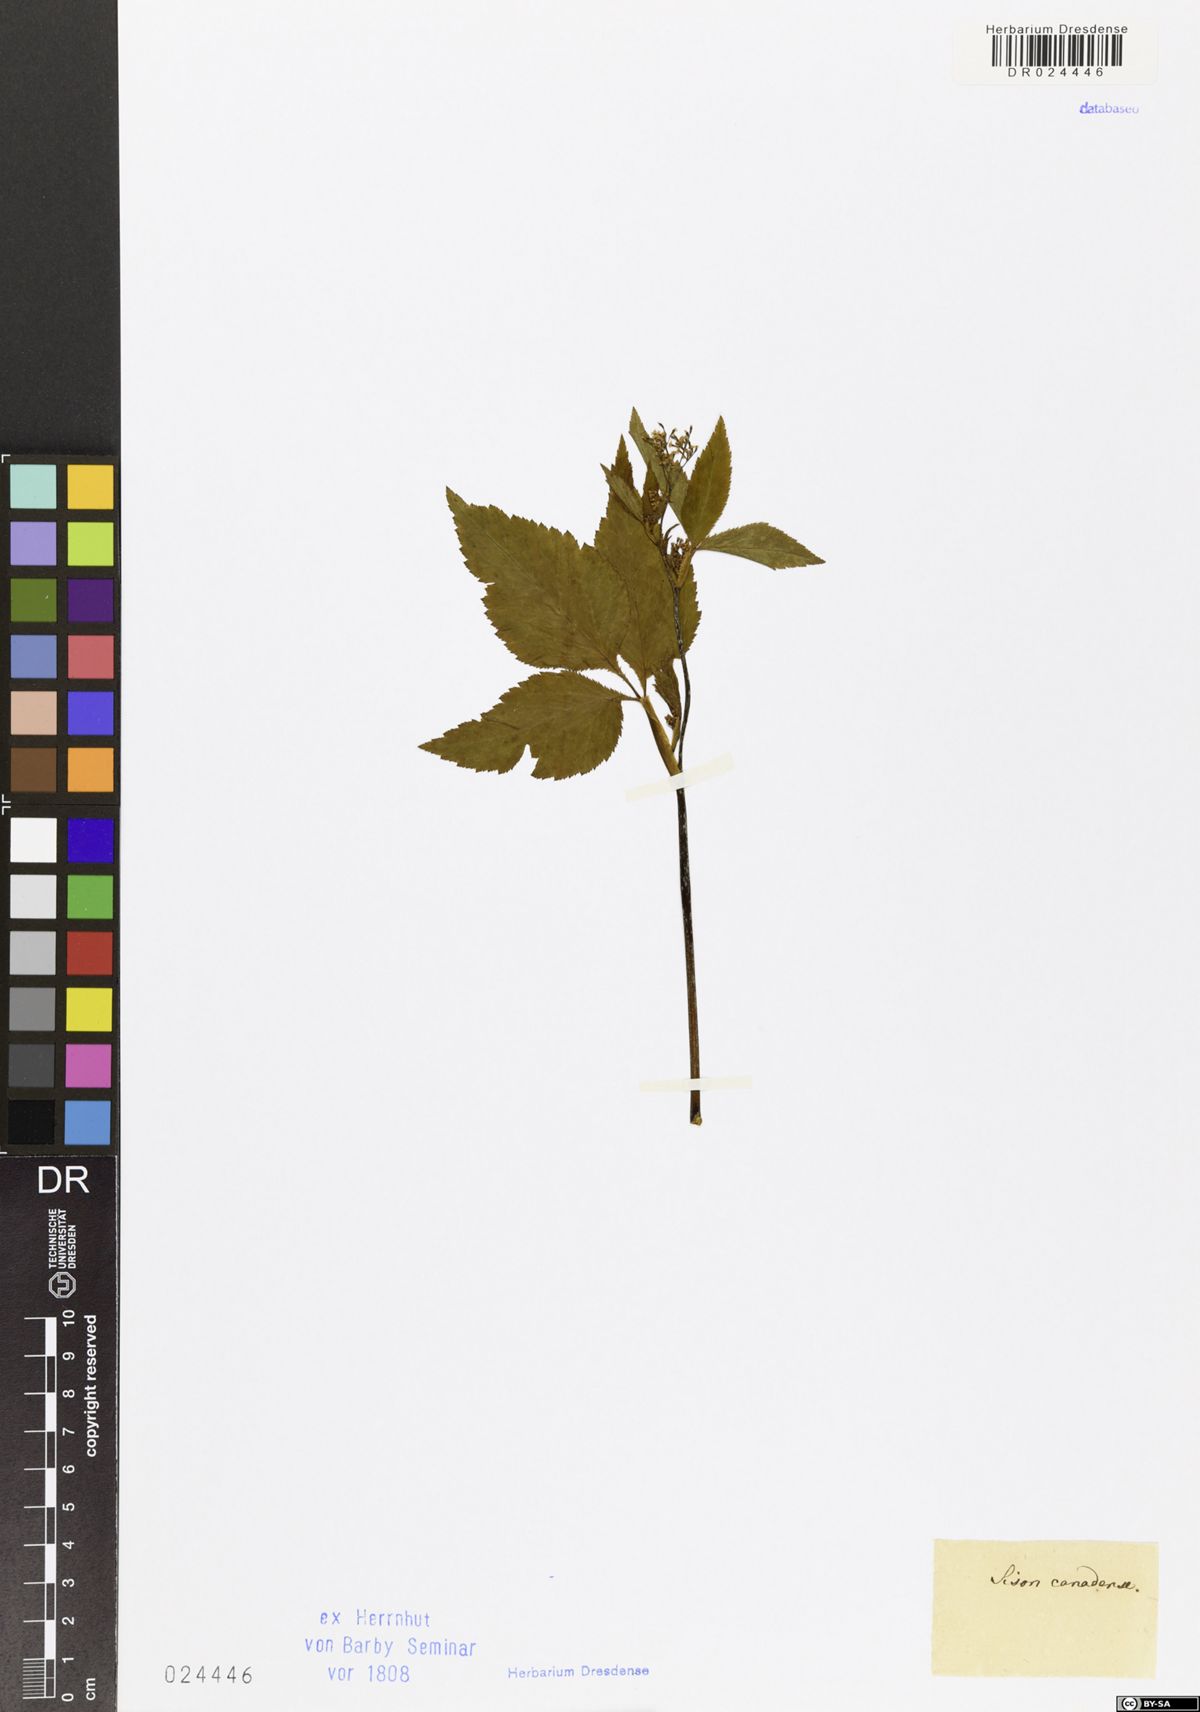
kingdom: Plantae
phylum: Tracheophyta
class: Magnoliopsida
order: Apiales
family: Apiaceae
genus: Cryptotaenia
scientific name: Cryptotaenia canadensis
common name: Honewort
